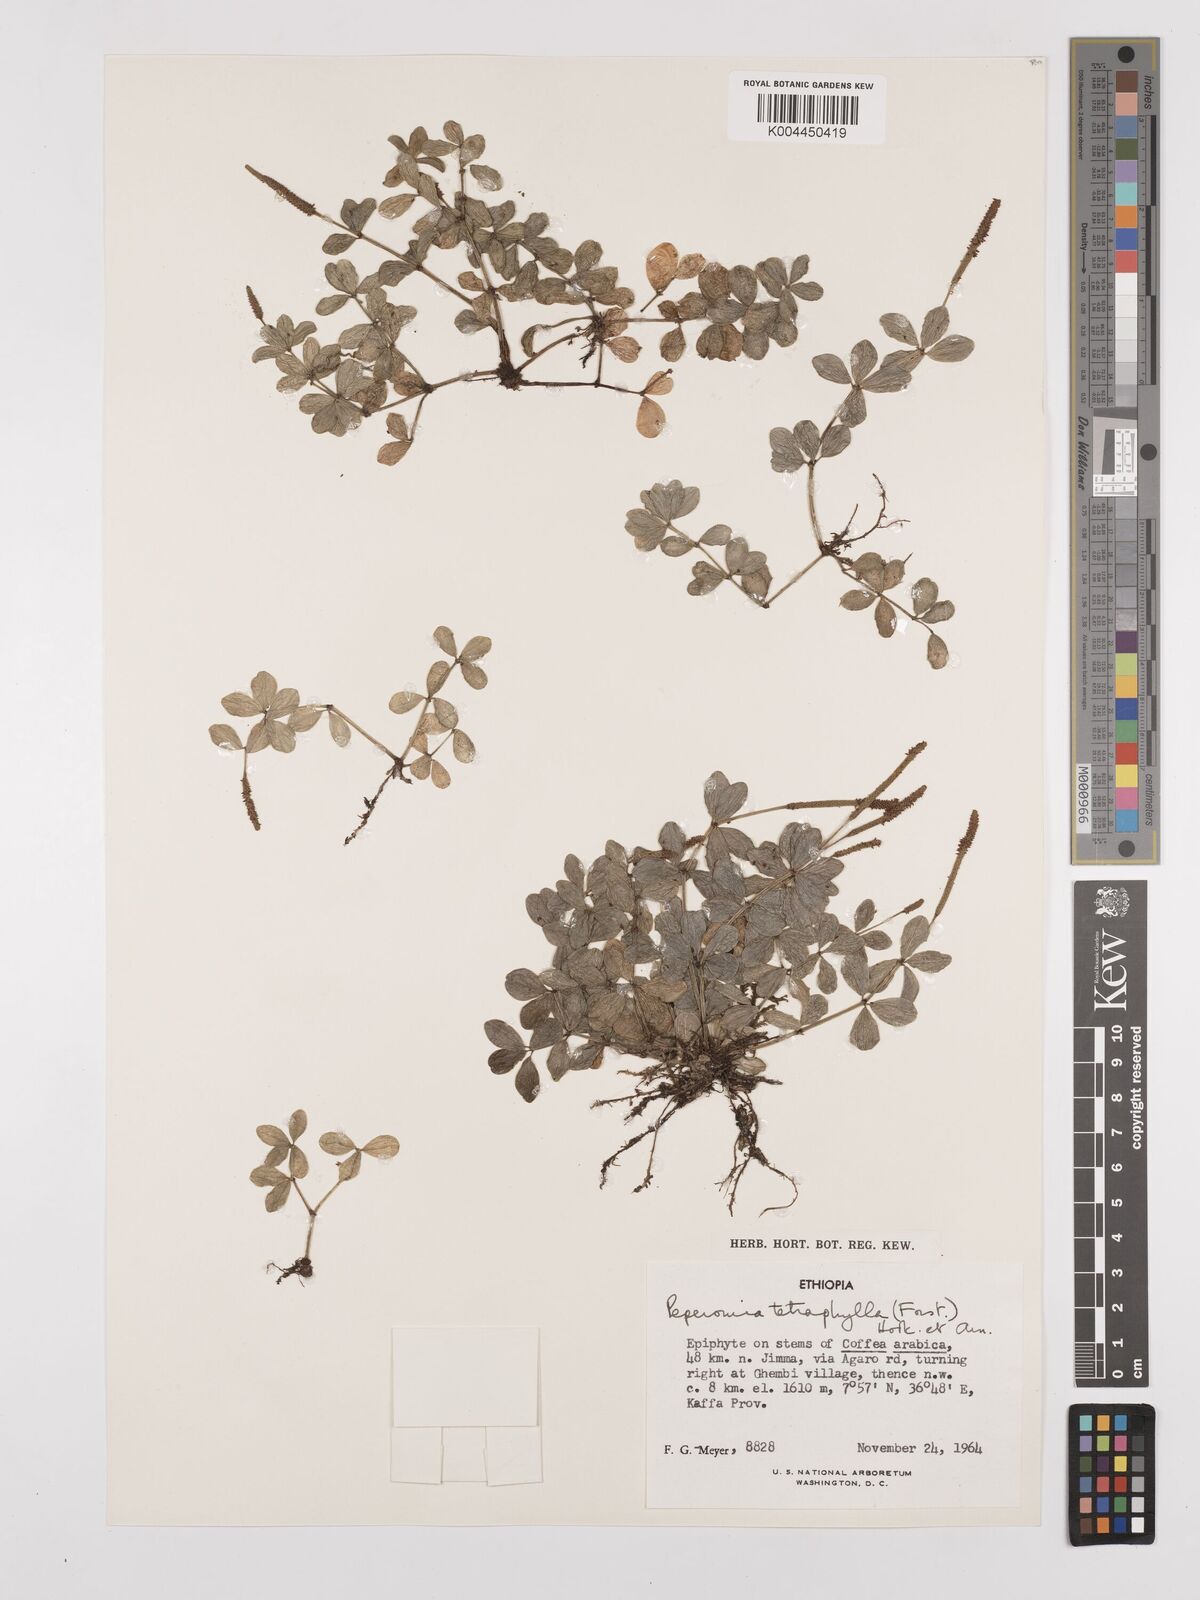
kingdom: Plantae
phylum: Tracheophyta
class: Magnoliopsida
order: Piperales
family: Piperaceae
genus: Peperomia
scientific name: Peperomia tetraphylla
